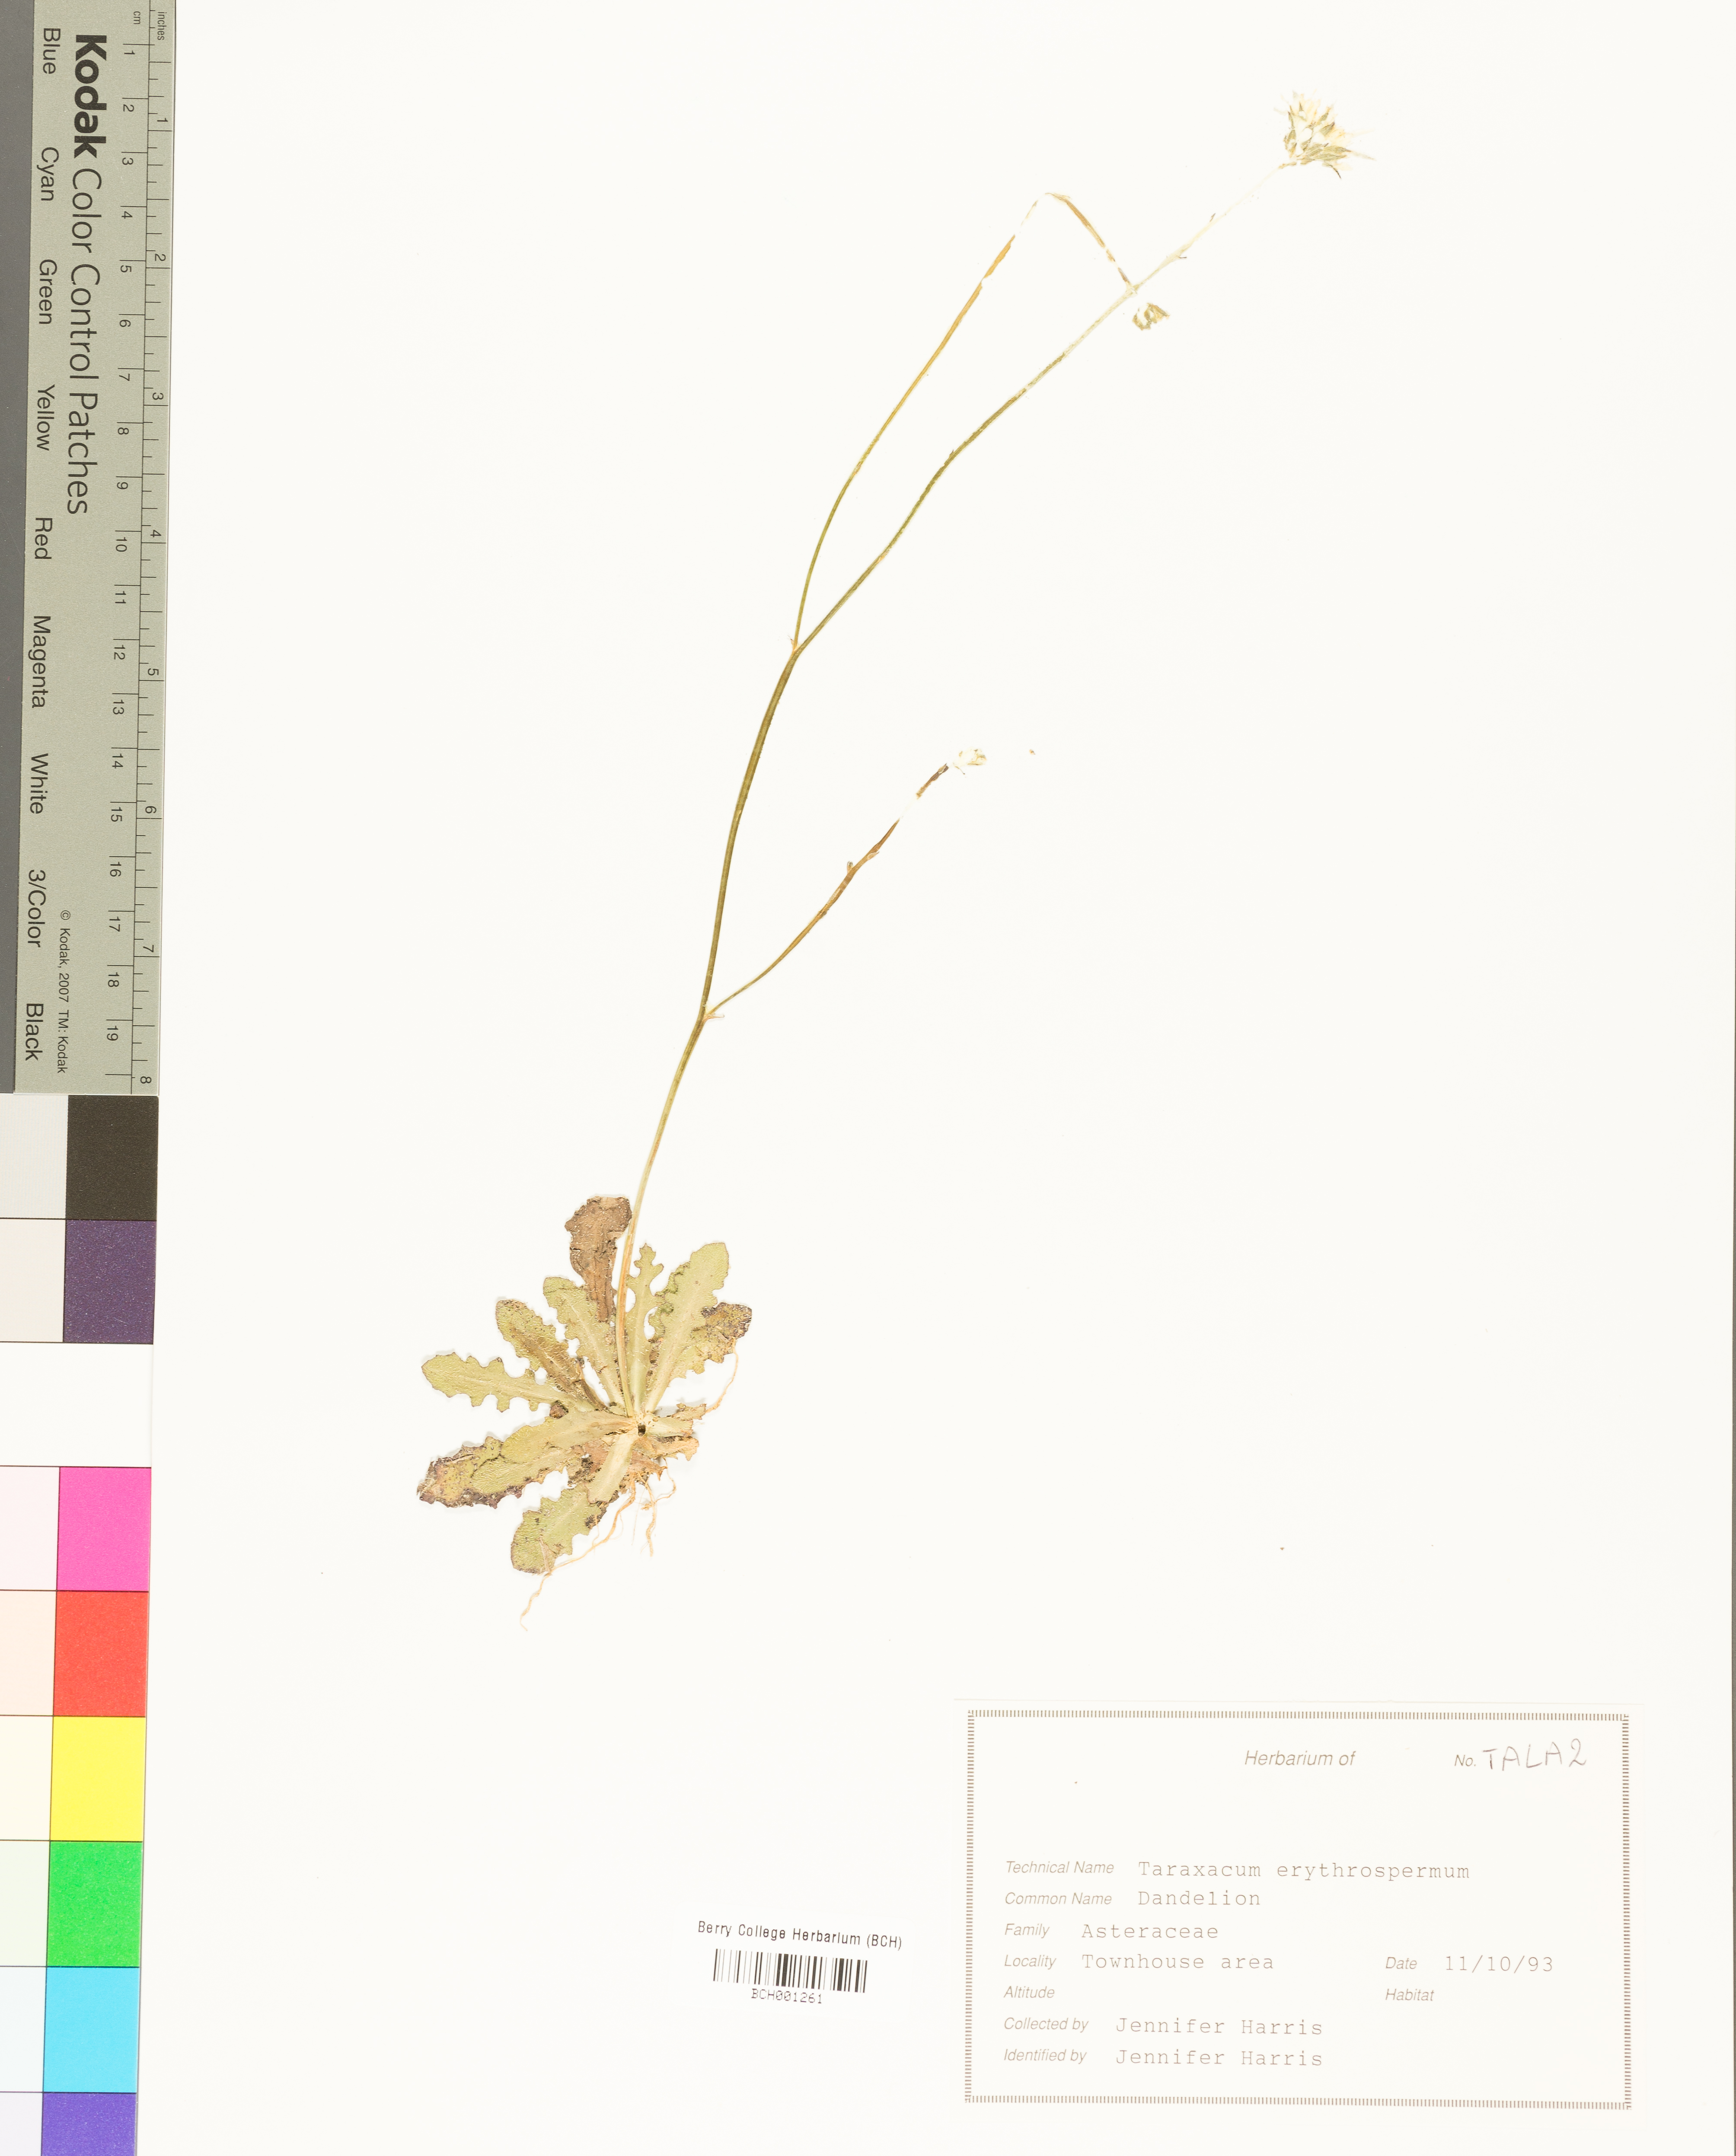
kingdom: Plantae
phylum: Tracheophyta
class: Magnoliopsida
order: Asterales
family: Asteraceae
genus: Taraxacum
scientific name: Taraxacum erythrospermum
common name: Rock dandelion
